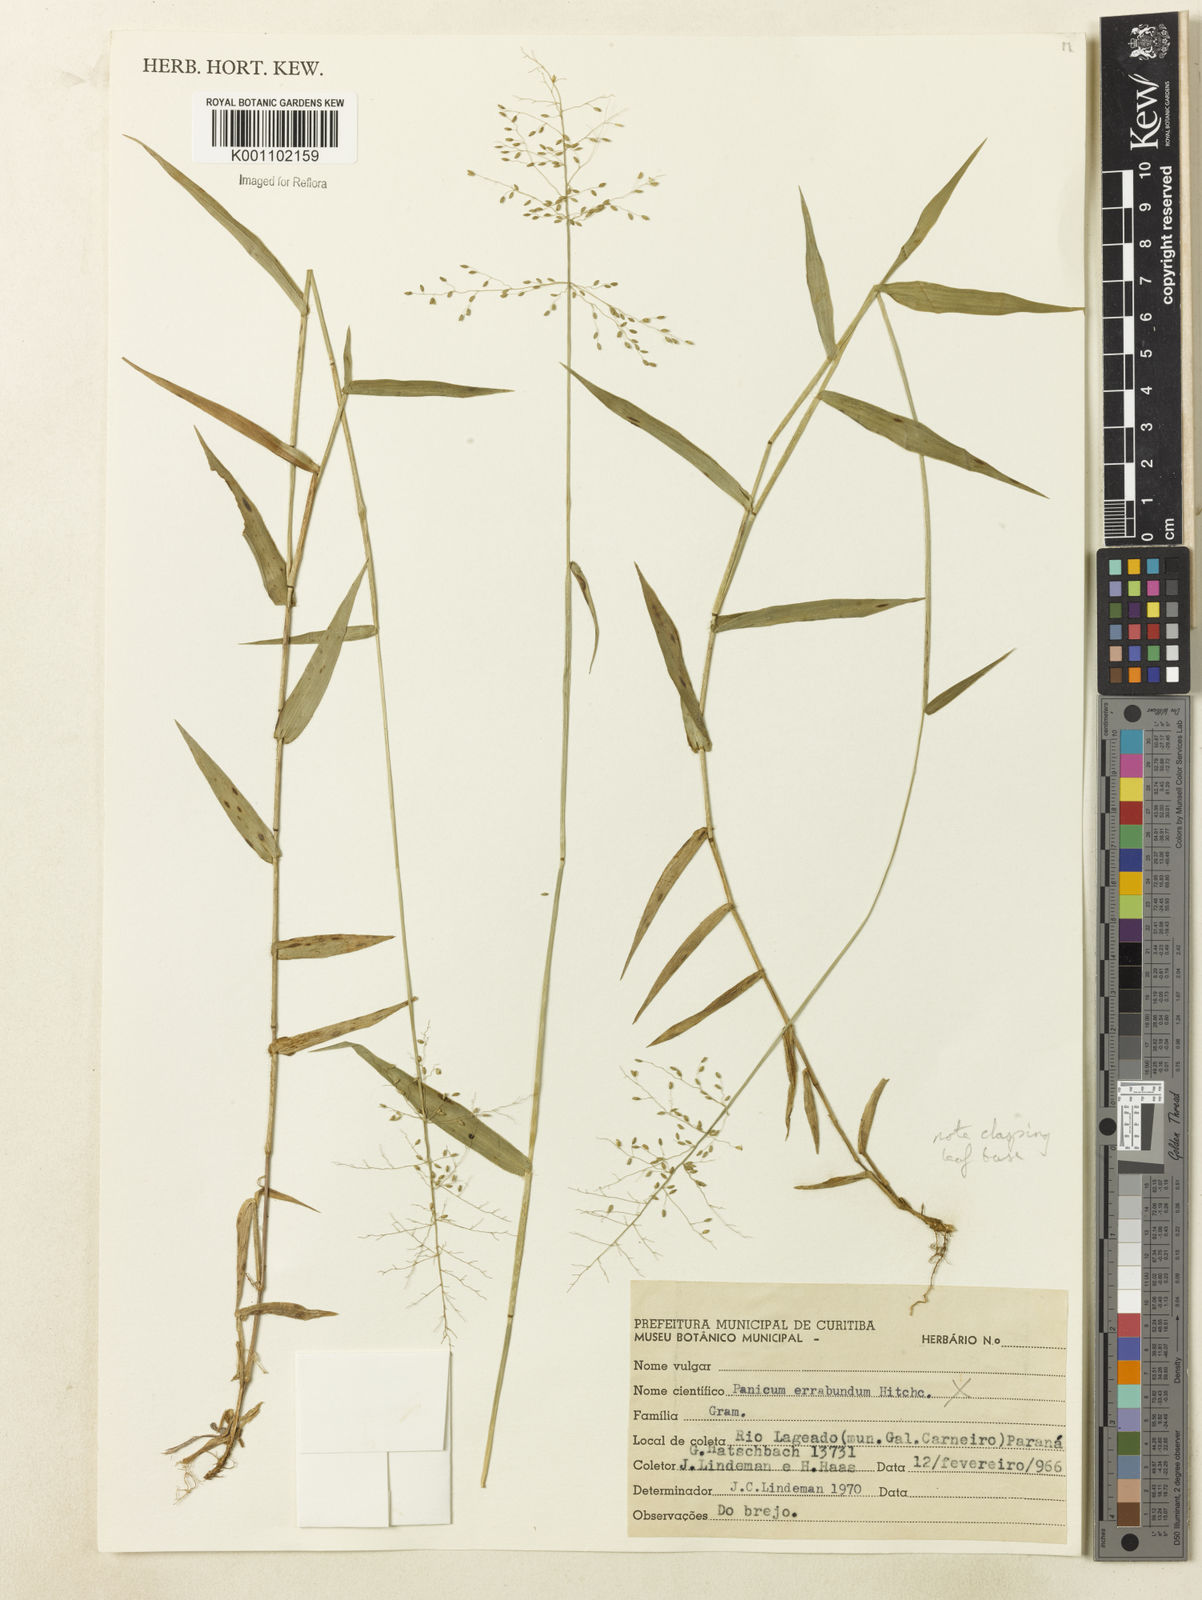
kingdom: Plantae
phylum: Tracheophyta
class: Liliopsida
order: Poales
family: Poaceae
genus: Dichanthelium
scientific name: Dichanthelium hebotes
